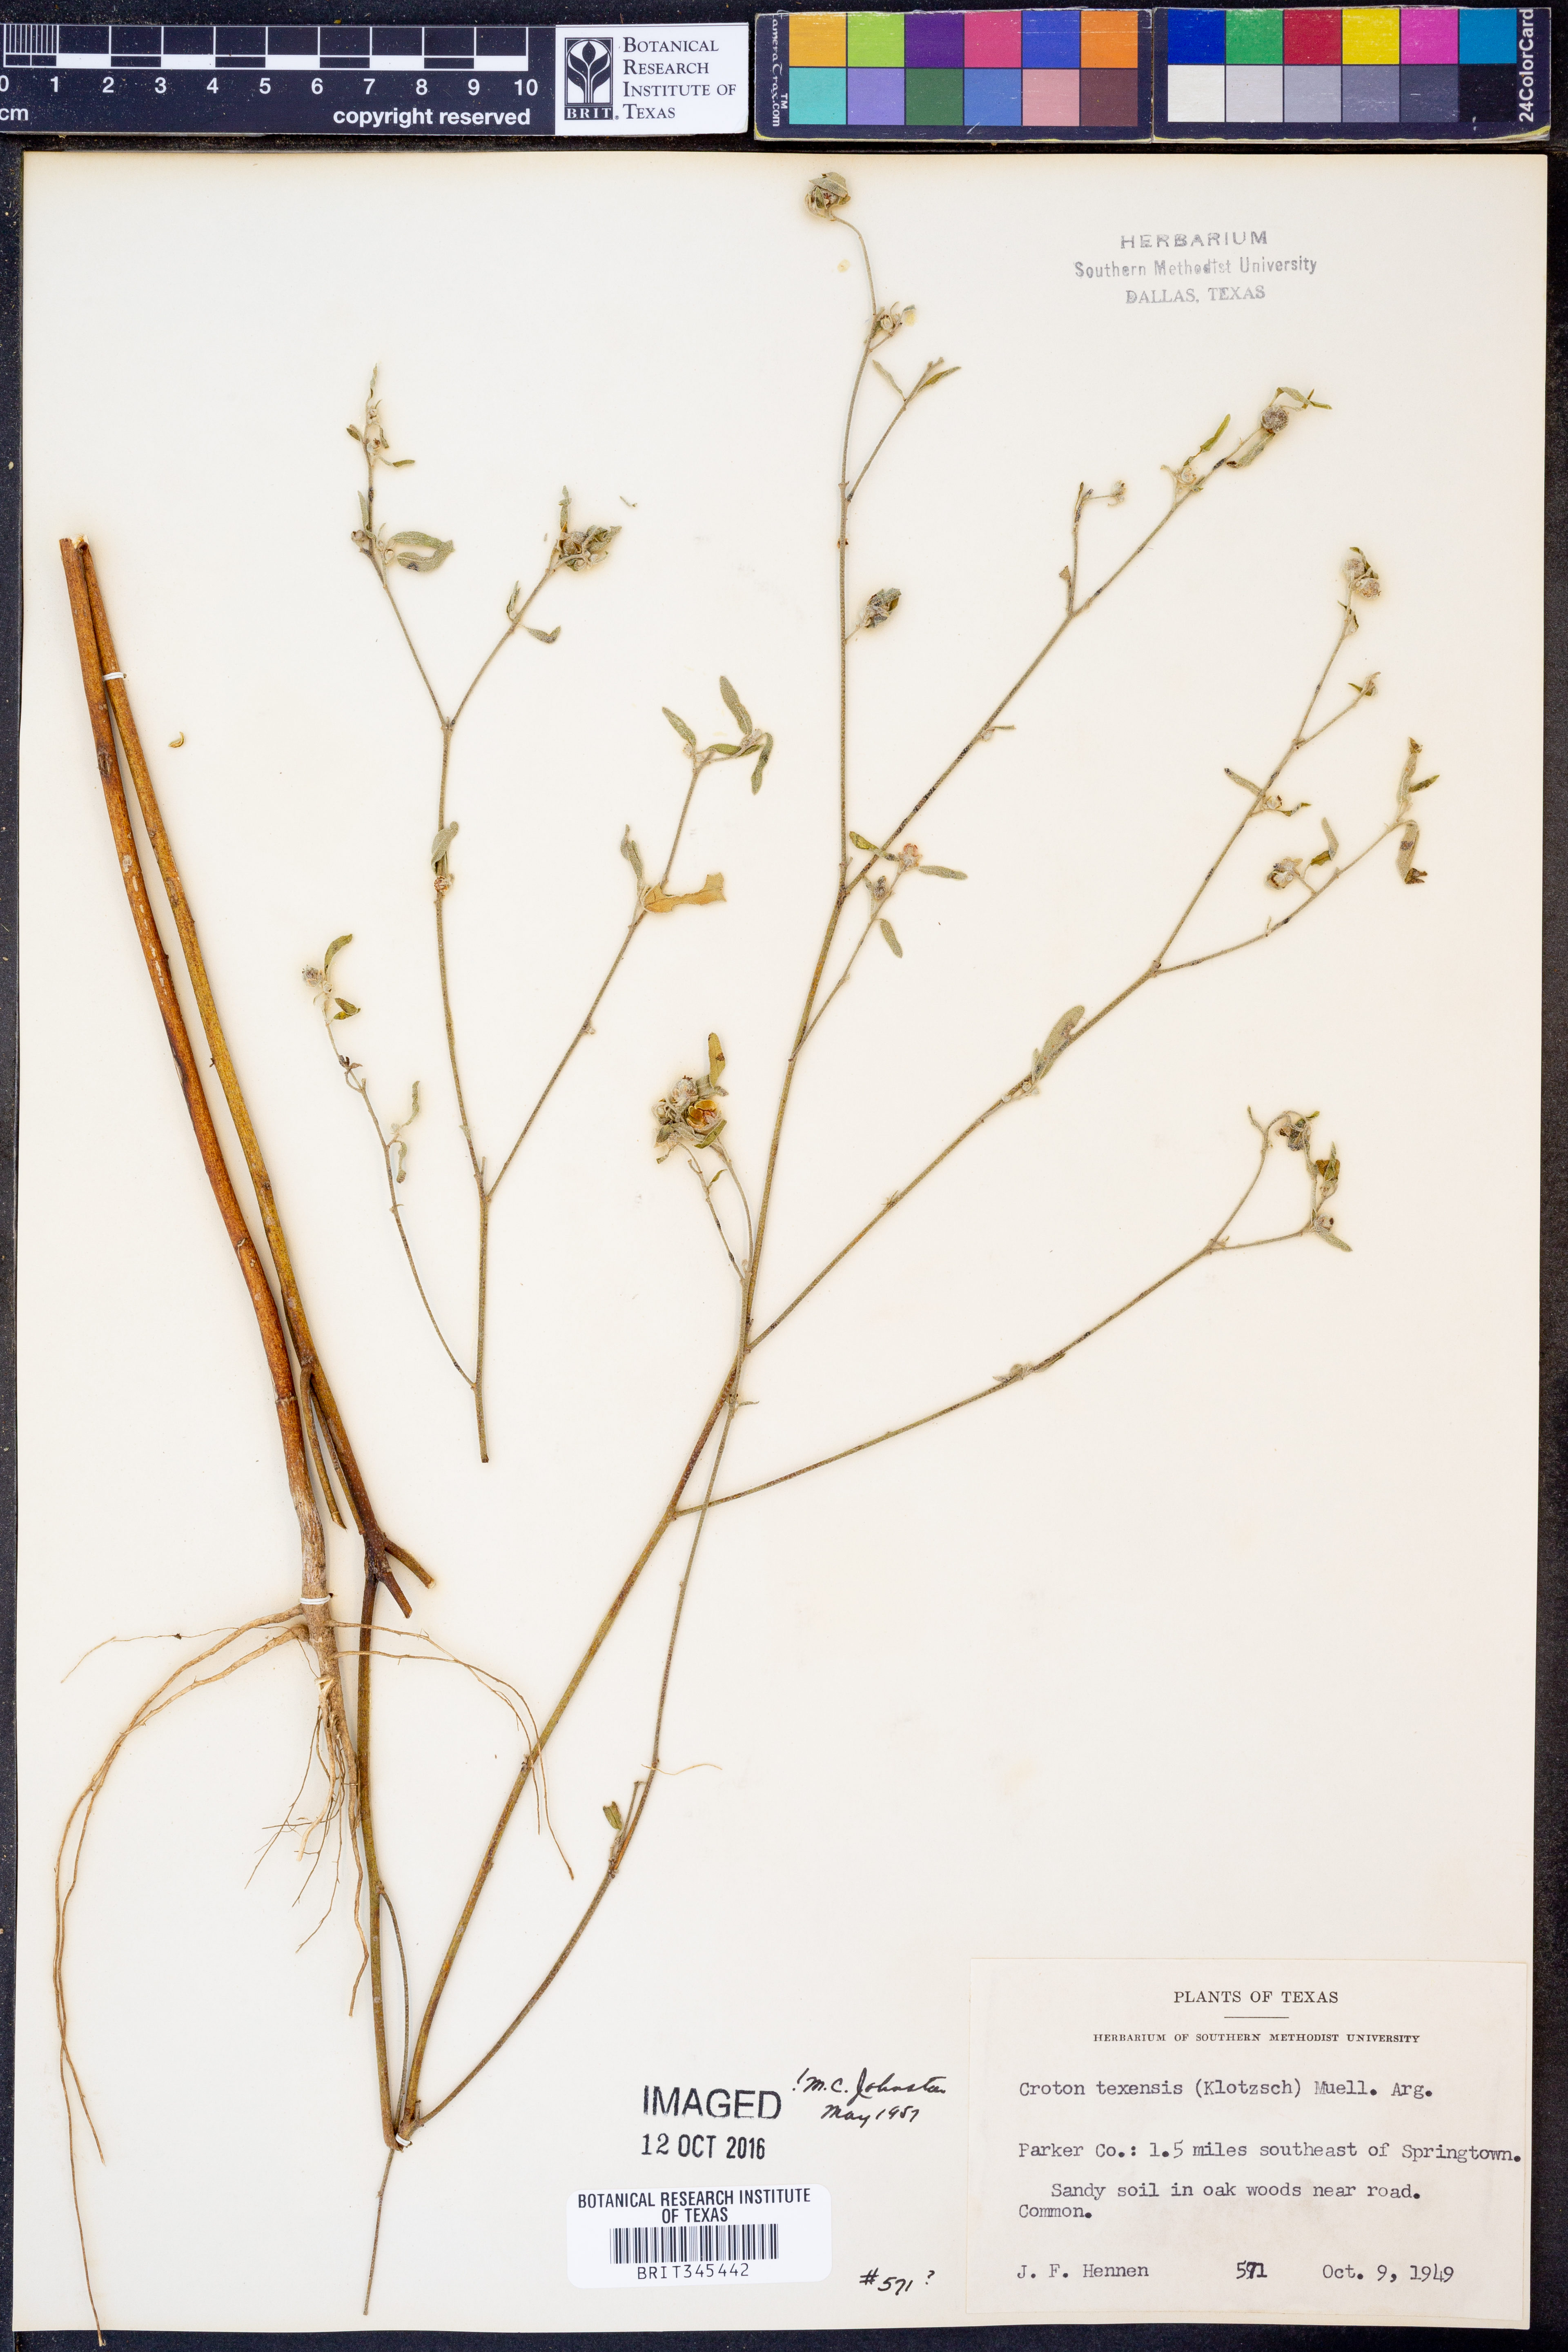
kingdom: Plantae
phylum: Tracheophyta
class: Magnoliopsida
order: Malpighiales
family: Euphorbiaceae
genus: Croton
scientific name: Croton texensis
